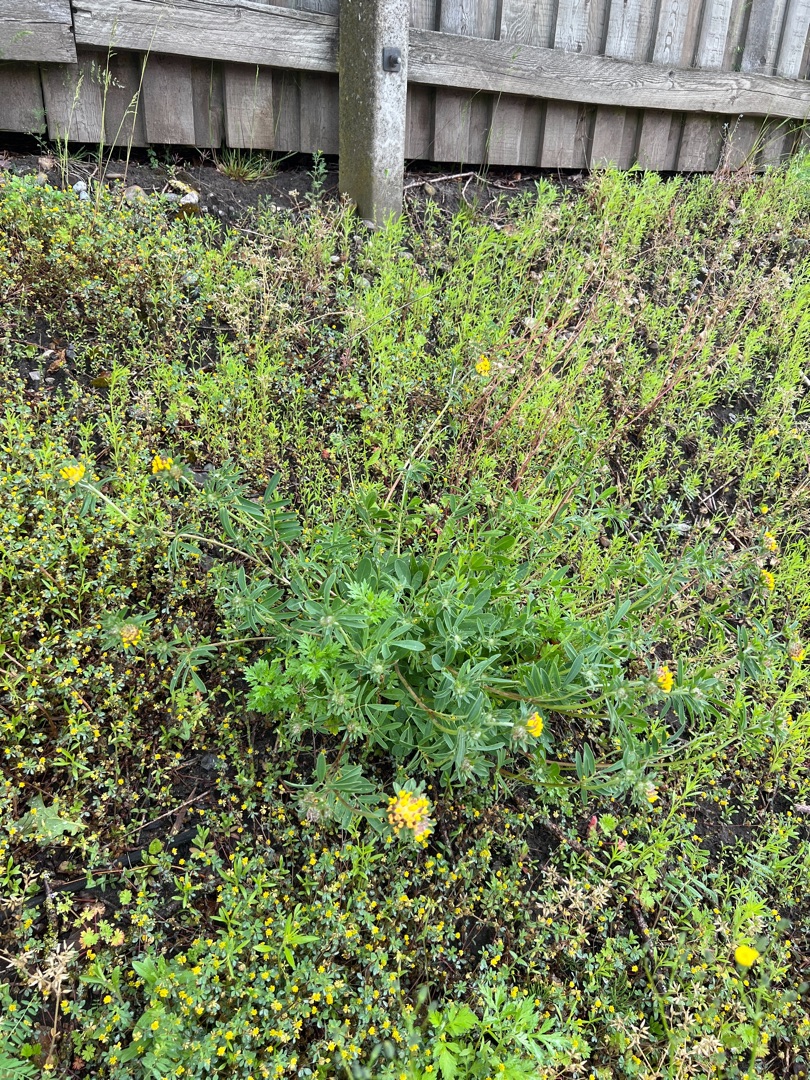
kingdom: Plantae
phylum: Tracheophyta
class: Magnoliopsida
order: Fabales
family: Fabaceae
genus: Anthyllis
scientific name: Anthyllis vulneraria
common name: Rundbælg
